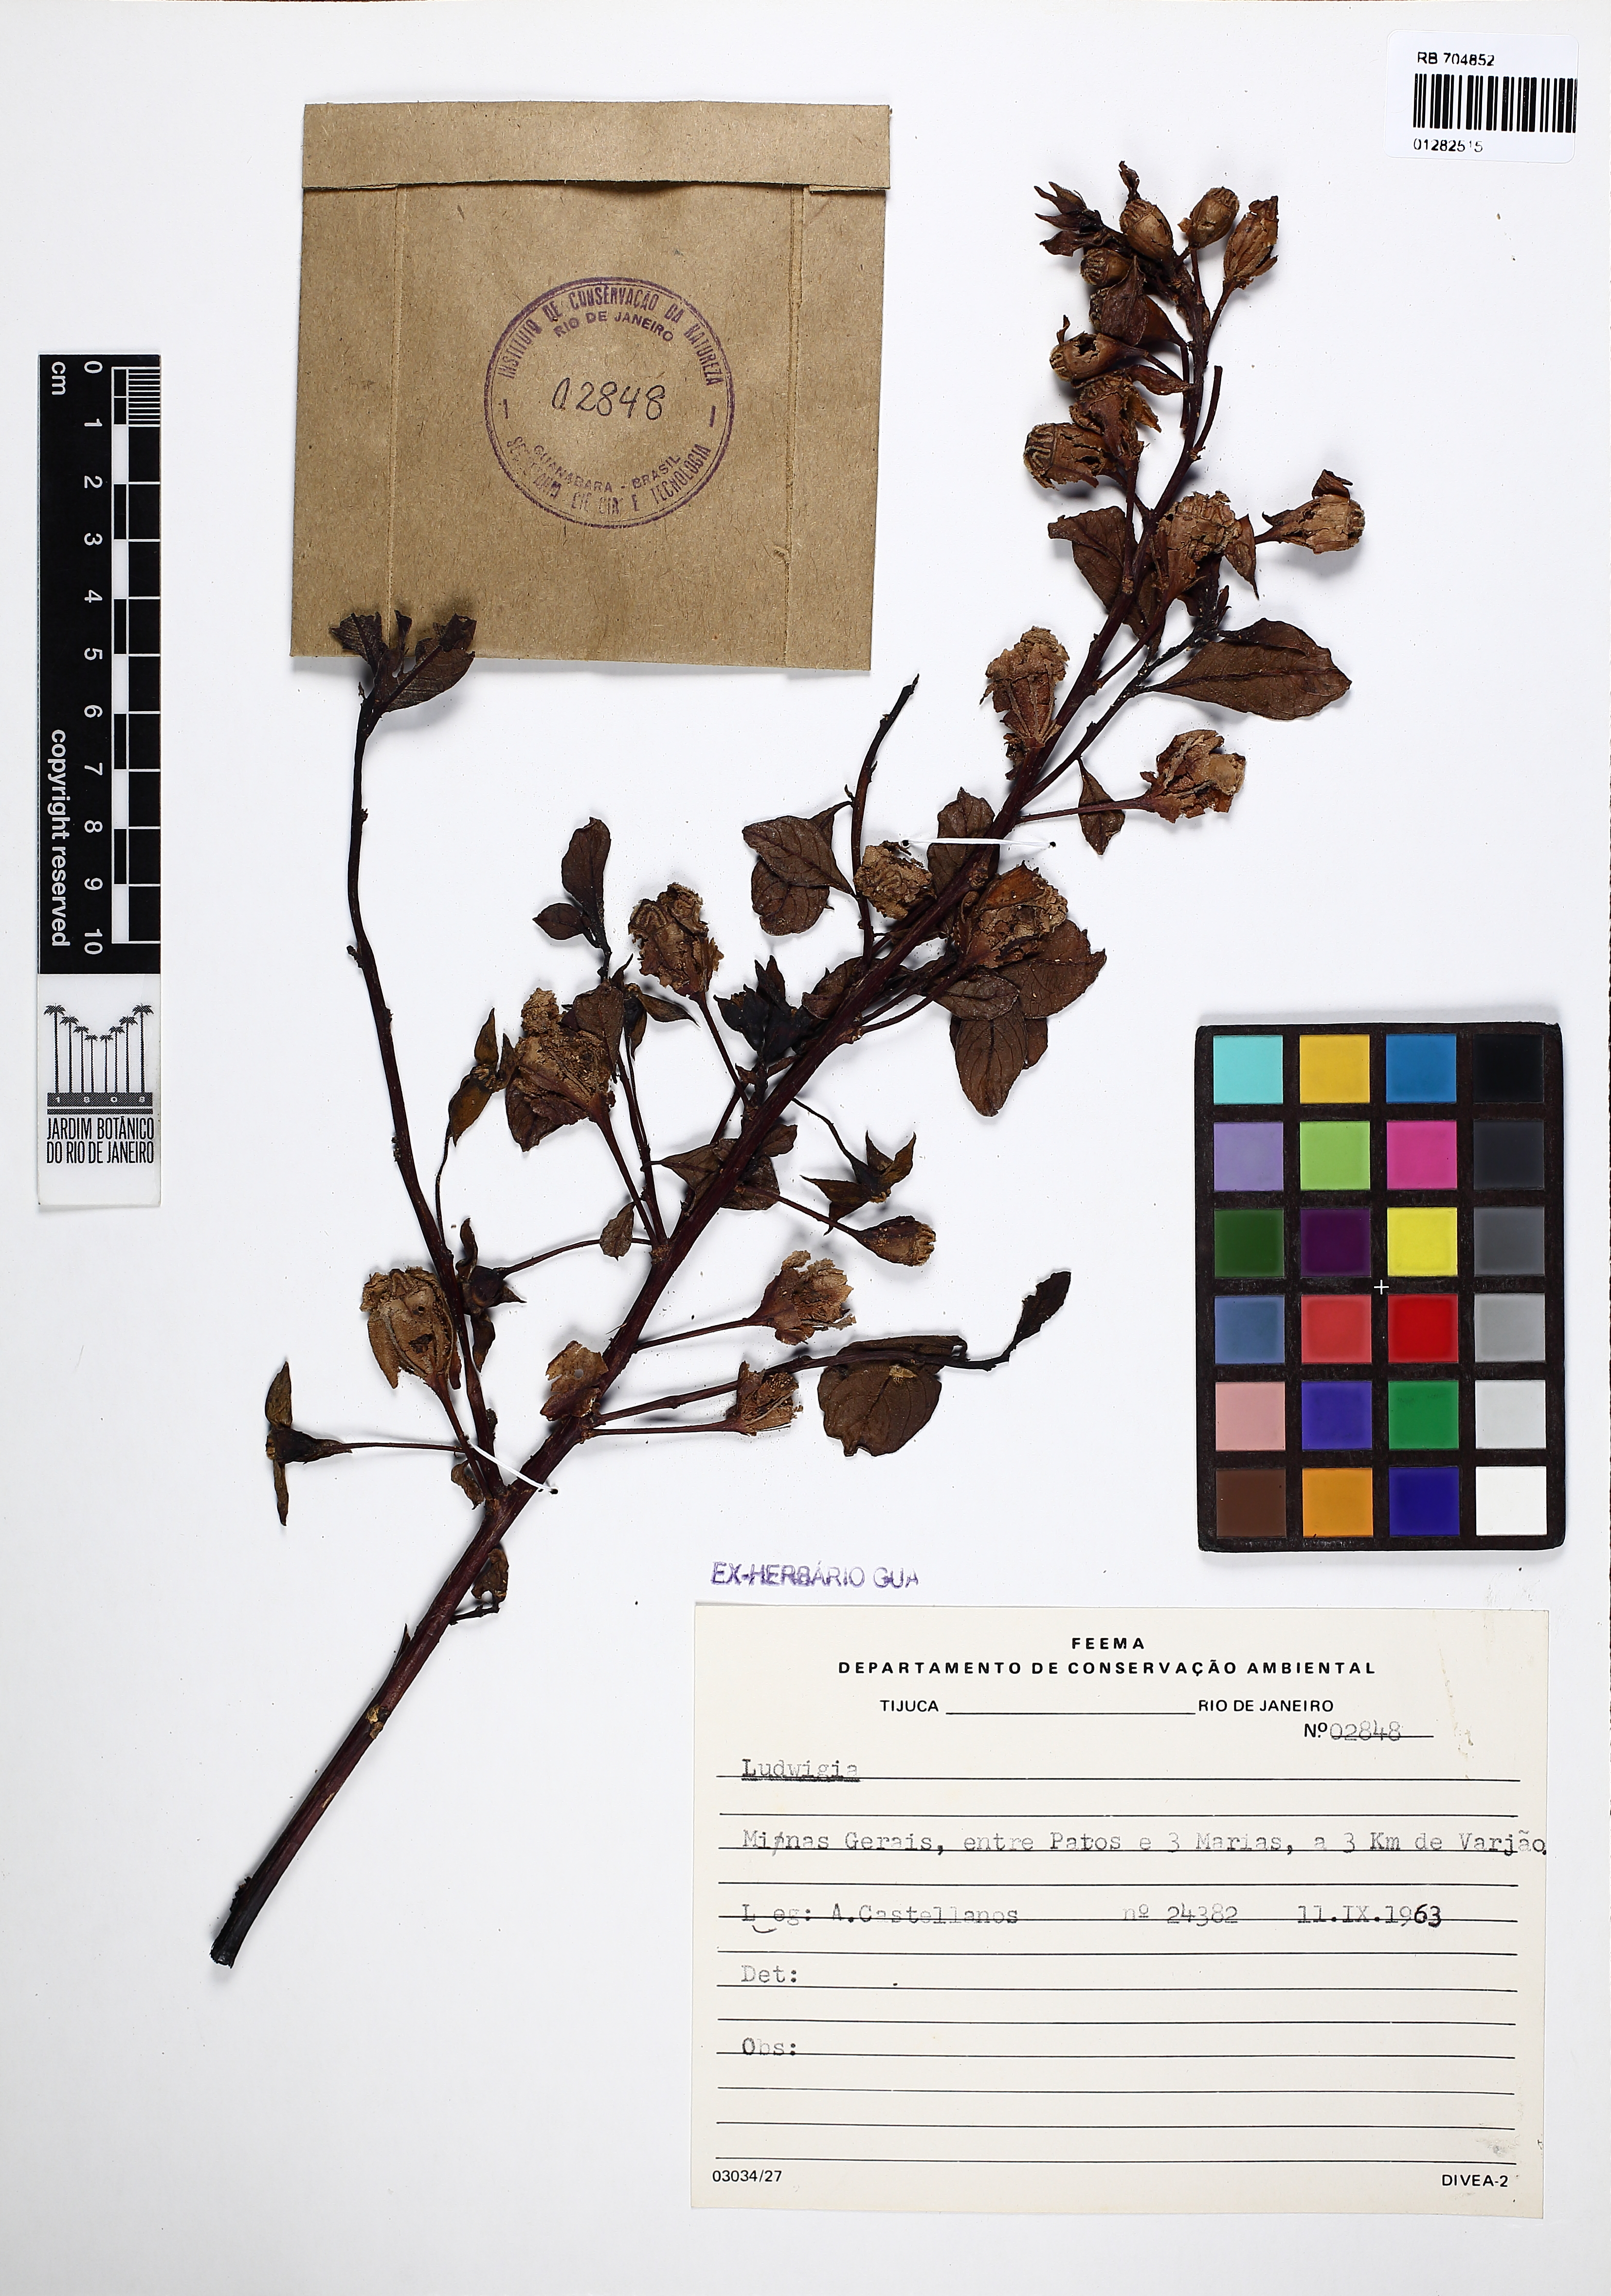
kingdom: Plantae
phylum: Tracheophyta
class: Magnoliopsida
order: Myrtales
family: Onagraceae
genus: Ludwigia
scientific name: Ludwigia
